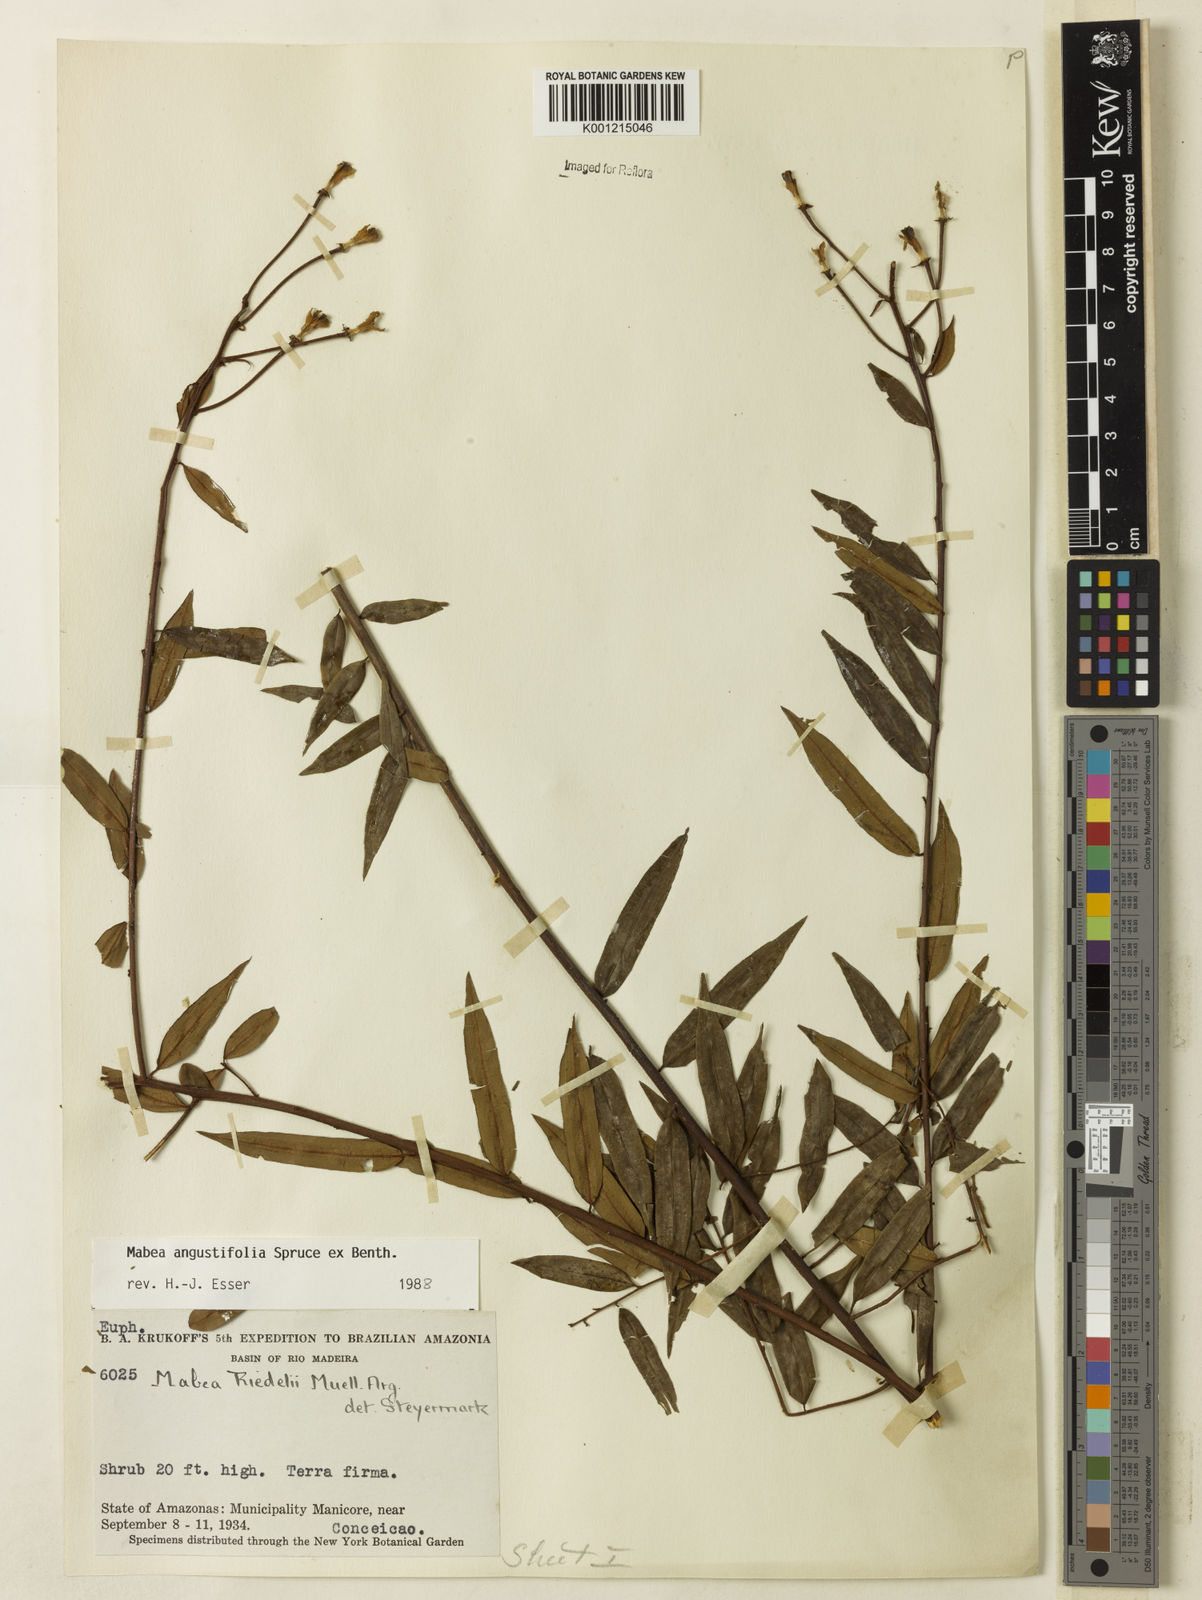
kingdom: Plantae
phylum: Tracheophyta
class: Magnoliopsida
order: Malpighiales
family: Euphorbiaceae
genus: Mabea
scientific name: Mabea
